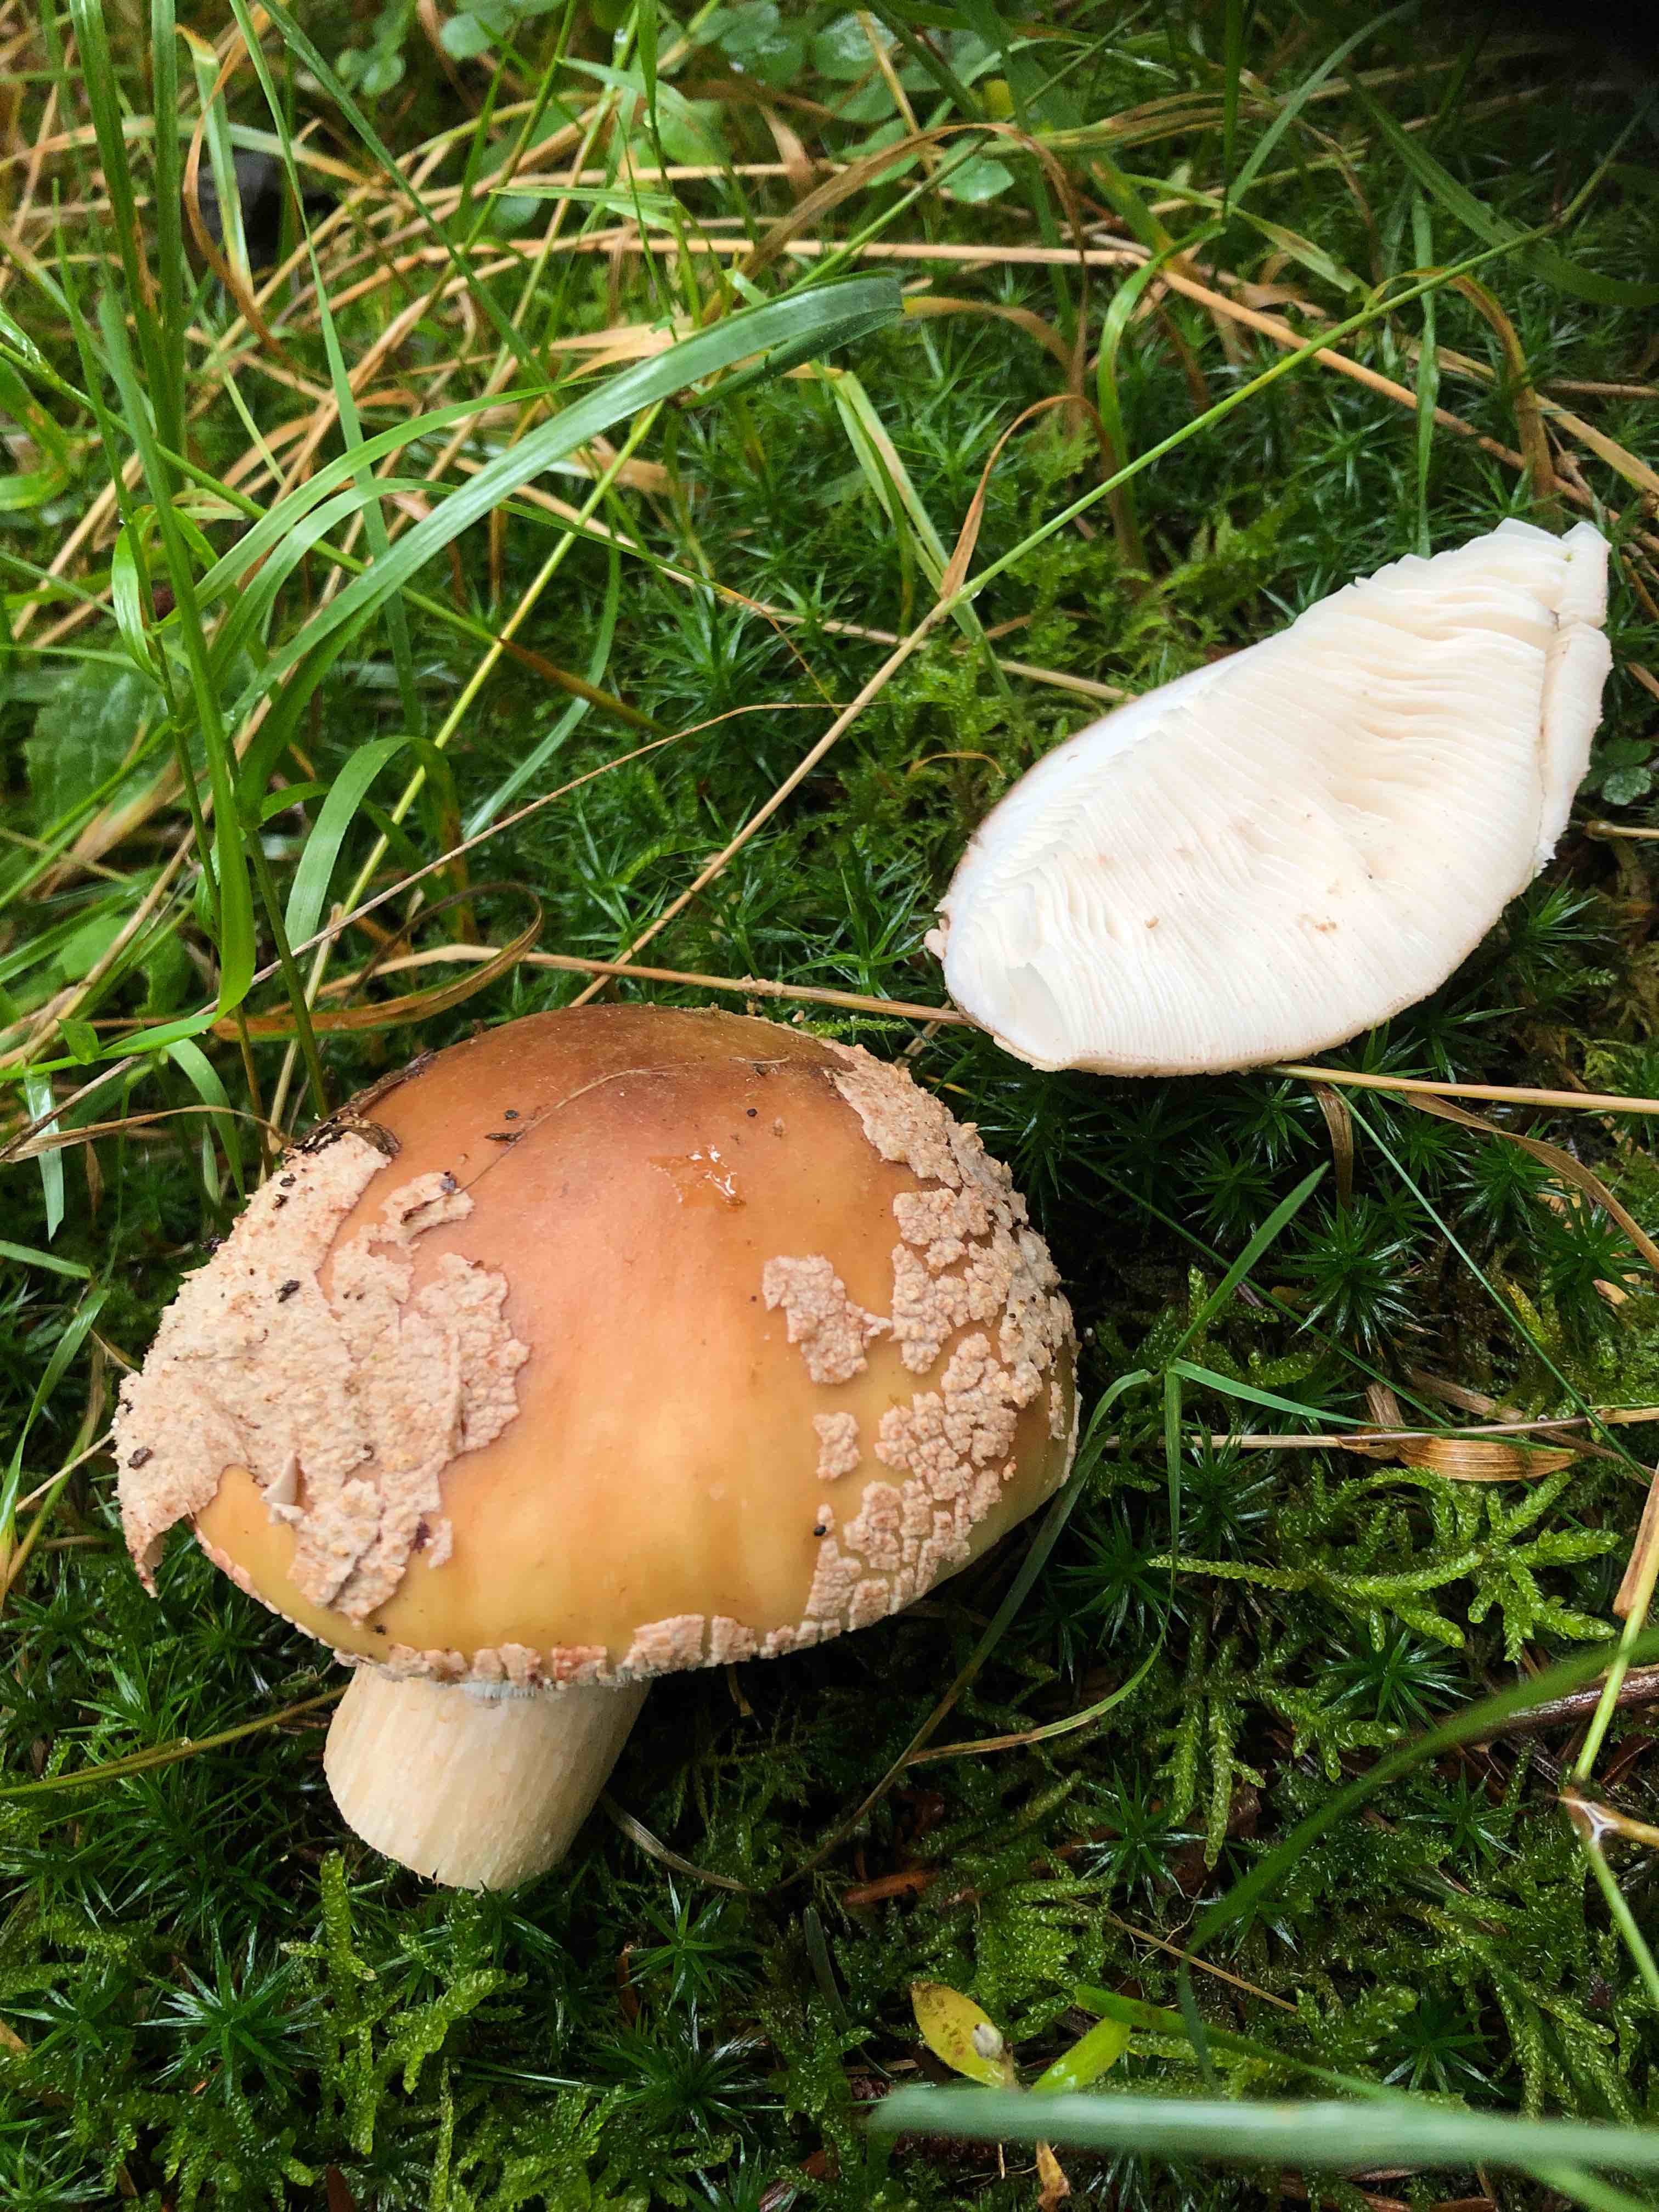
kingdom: Fungi
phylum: Basidiomycota
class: Agaricomycetes
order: Agaricales
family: Amanitaceae
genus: Amanita
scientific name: Amanita rubescens
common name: rødmende fluesvamp
